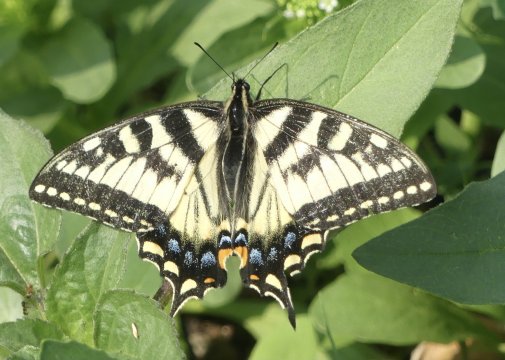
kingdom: Animalia
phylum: Arthropoda
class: Insecta
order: Lepidoptera
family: Papilionidae
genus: Pterourus
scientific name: Pterourus canadensis
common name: Canadian Tiger Swallowtail
